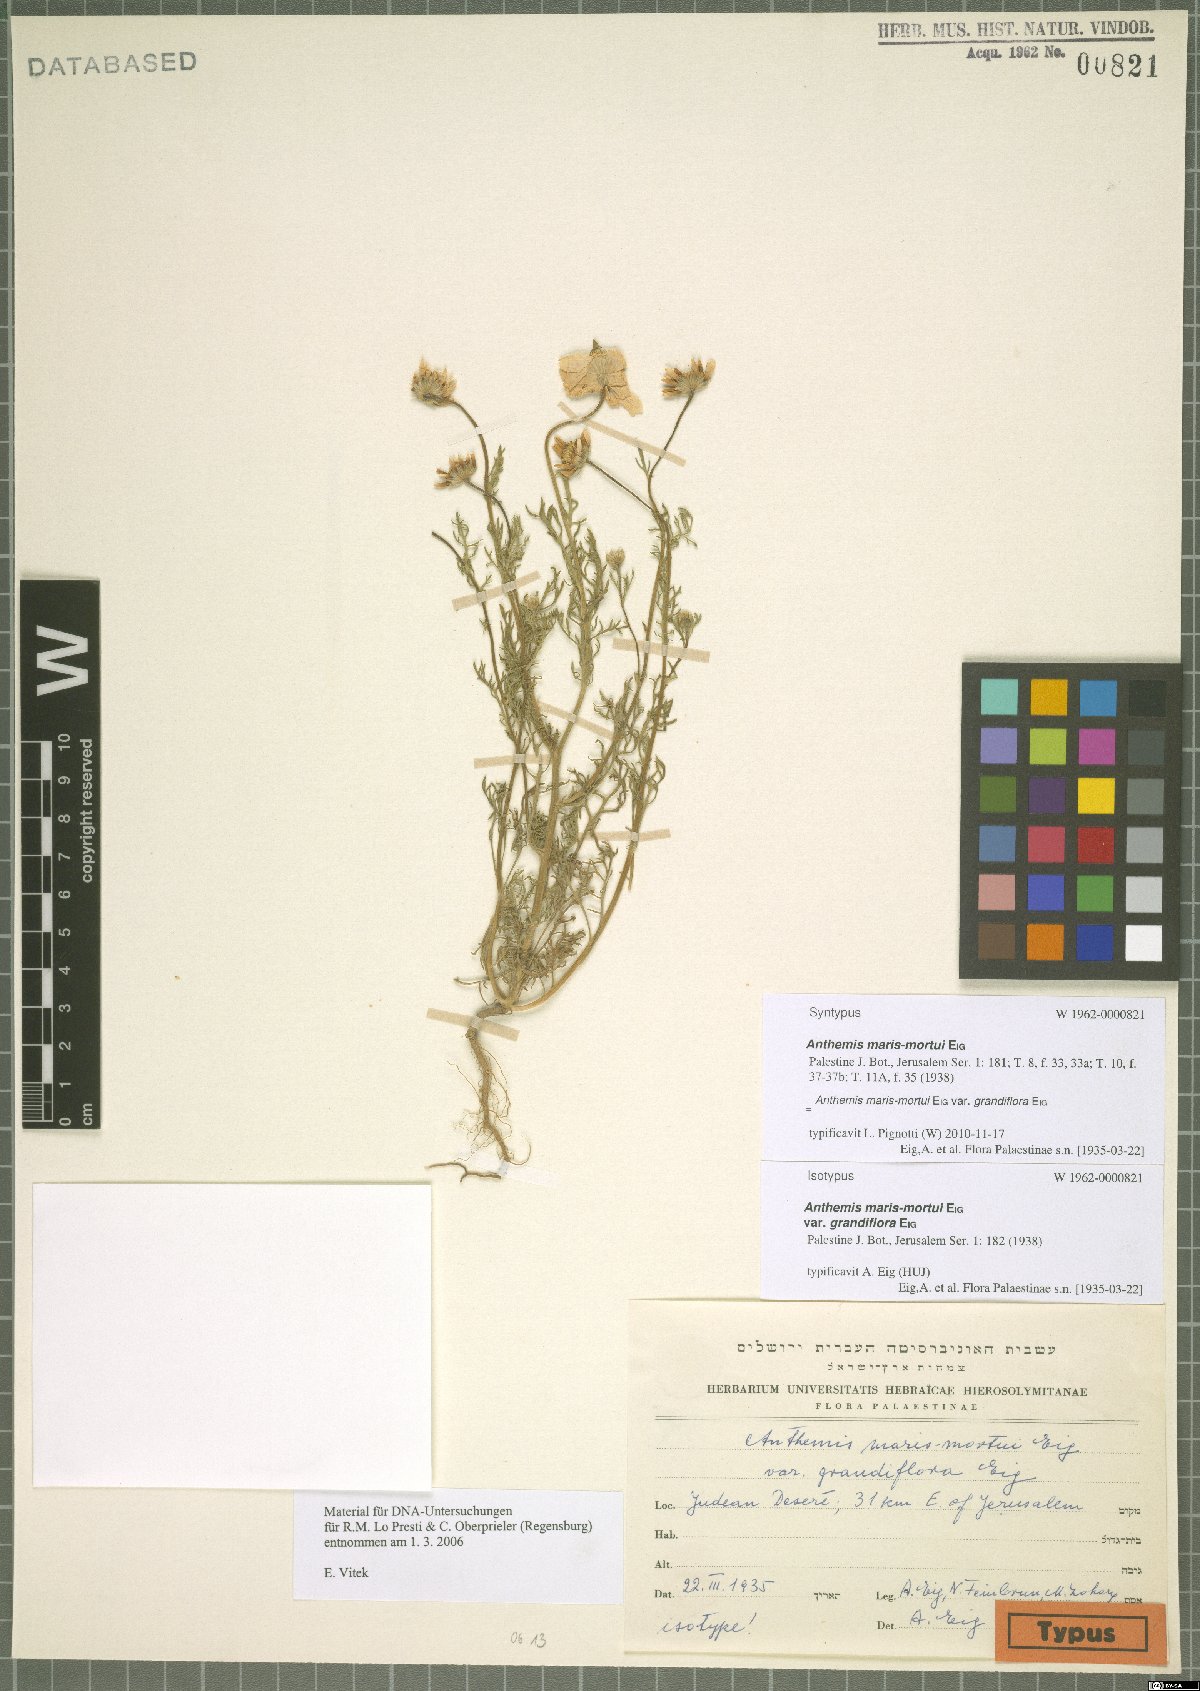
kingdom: Plantae
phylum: Tracheophyta
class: Magnoliopsida
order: Asterales
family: Asteraceae
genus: Anthemis
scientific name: Anthemis maris-mortui
